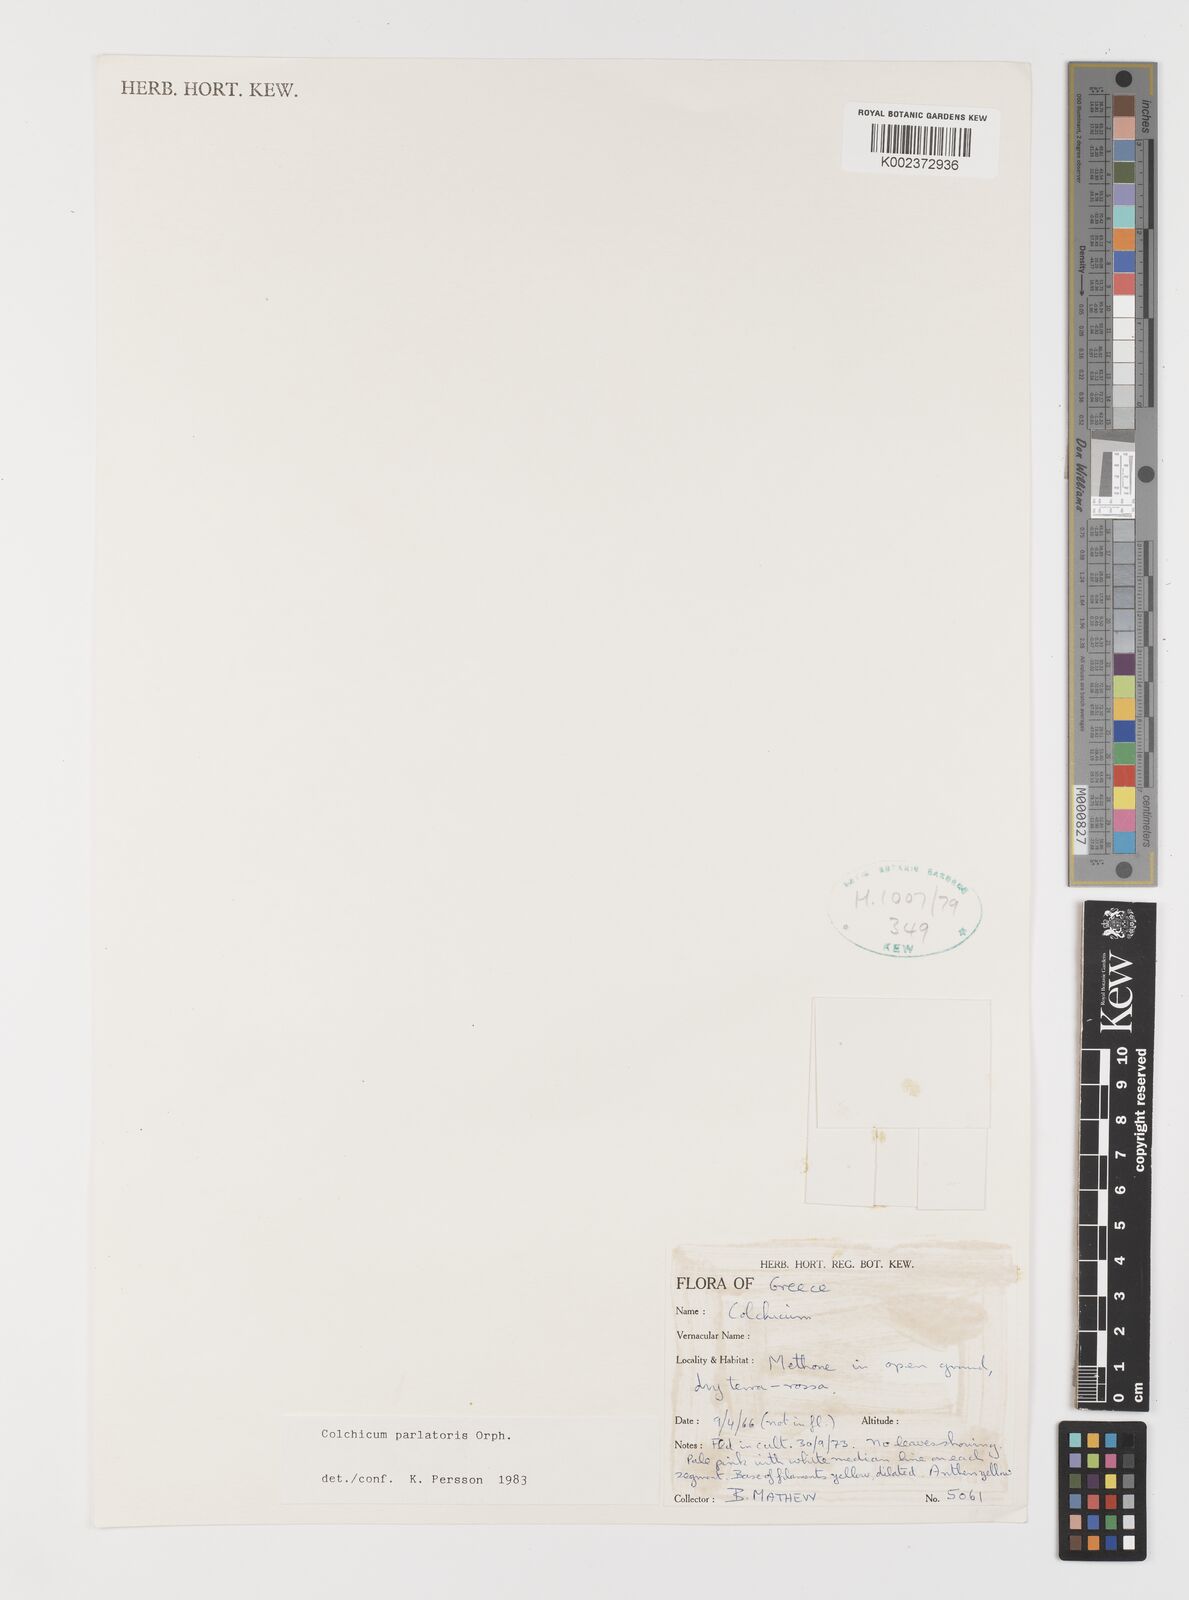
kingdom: Plantae
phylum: Tracheophyta
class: Liliopsida
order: Liliales
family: Colchicaceae
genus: Colchicum
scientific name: Colchicum parlatoris
